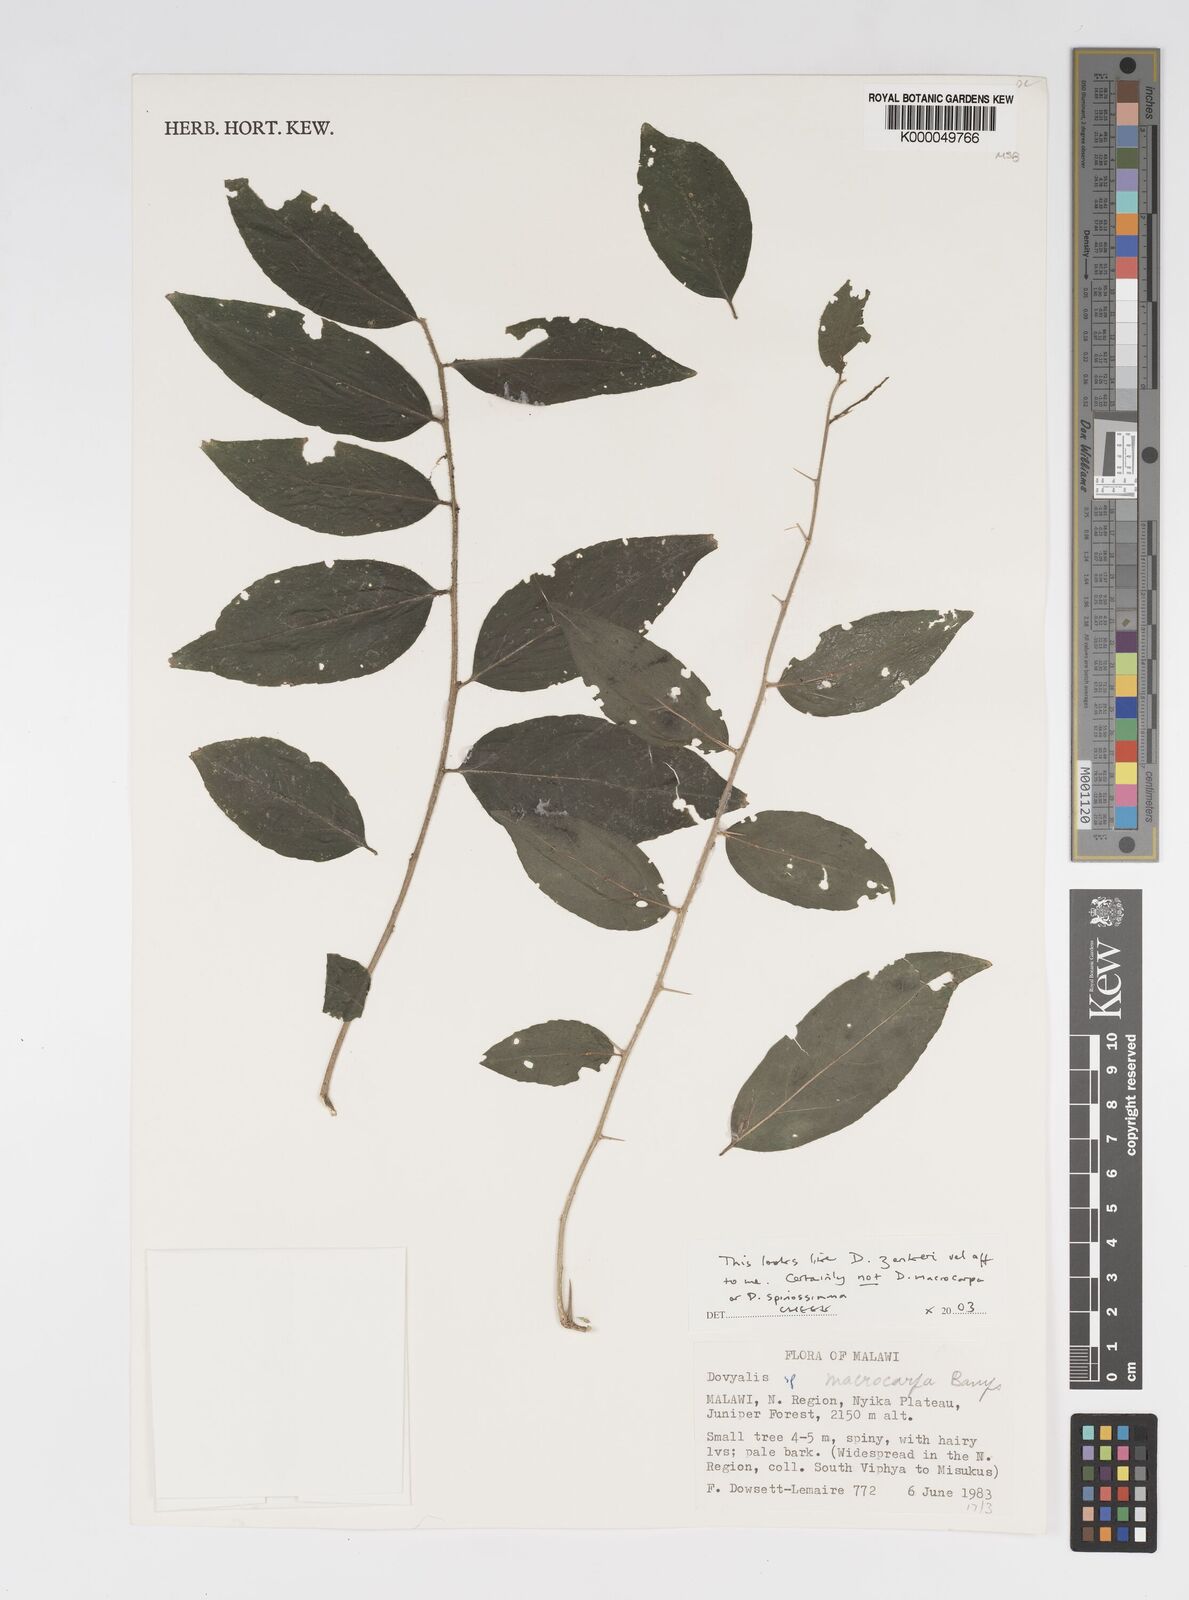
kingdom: Plantae
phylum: Tracheophyta
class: Magnoliopsida
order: Malpighiales
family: Salicaceae
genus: Dovyalis
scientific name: Dovyalis spinosissima
